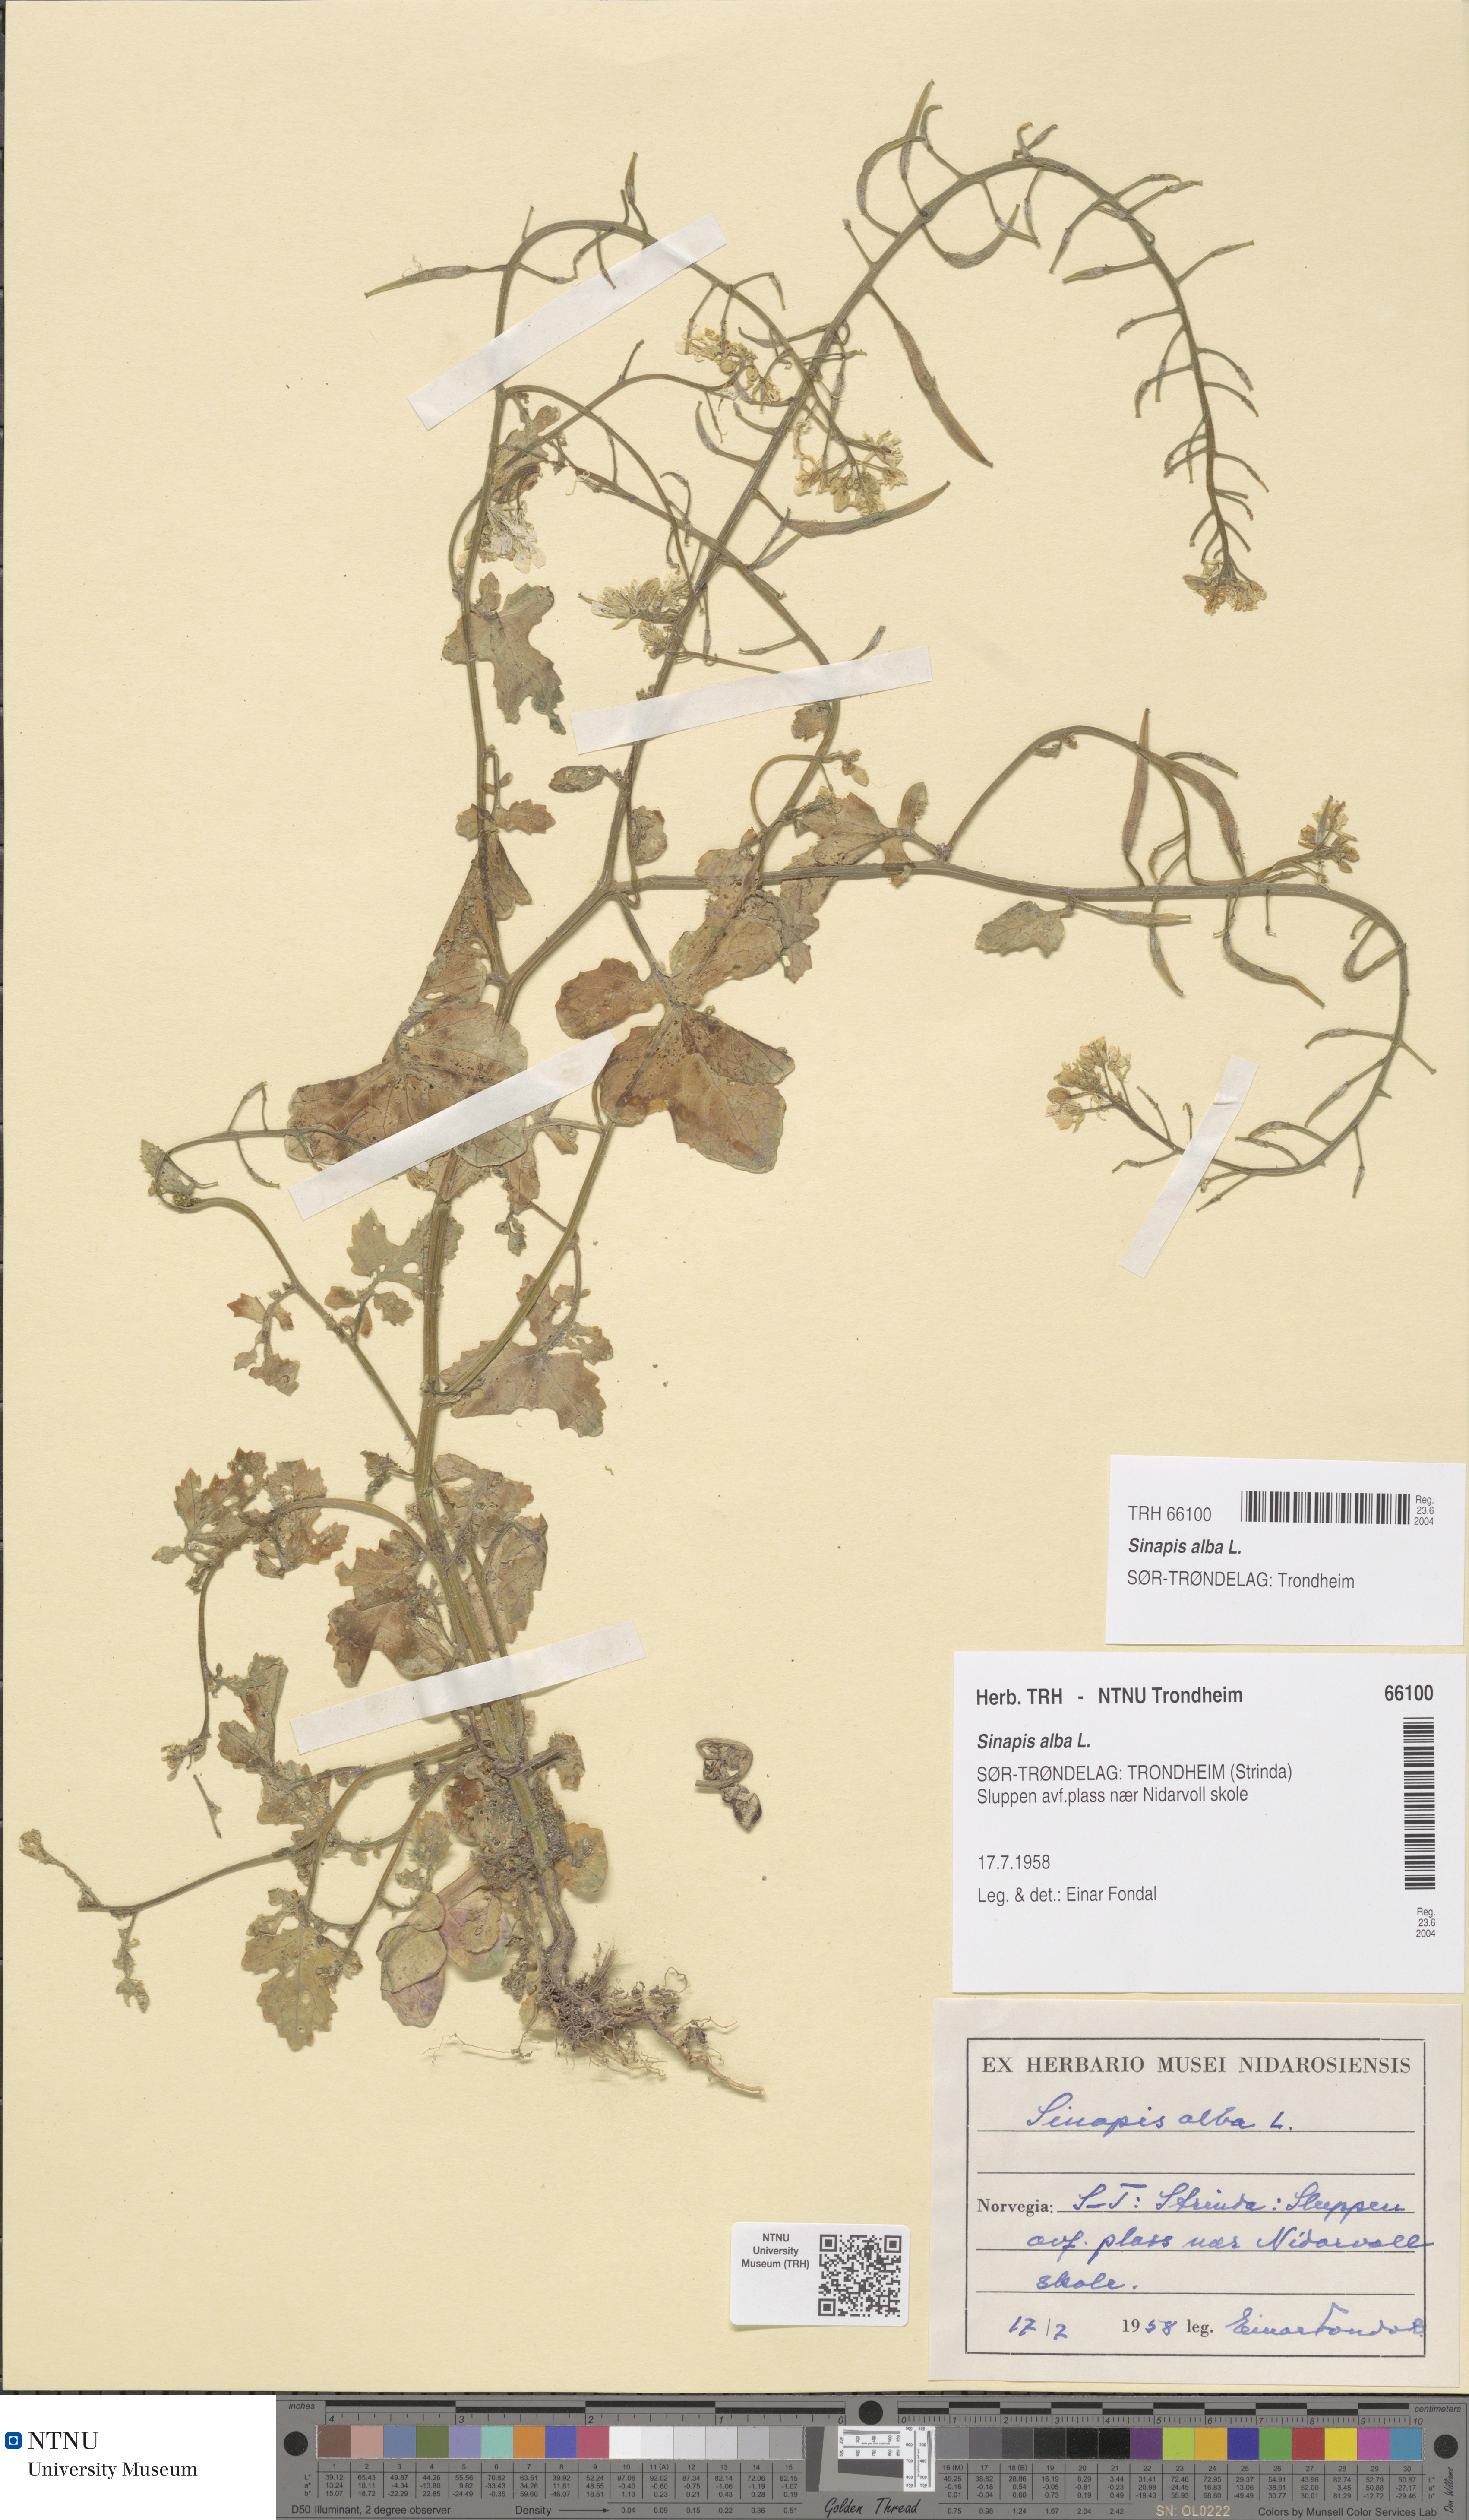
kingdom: Plantae
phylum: Tracheophyta
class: Magnoliopsida
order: Brassicales
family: Brassicaceae
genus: Sinapis
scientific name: Sinapis alba
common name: White mustard
